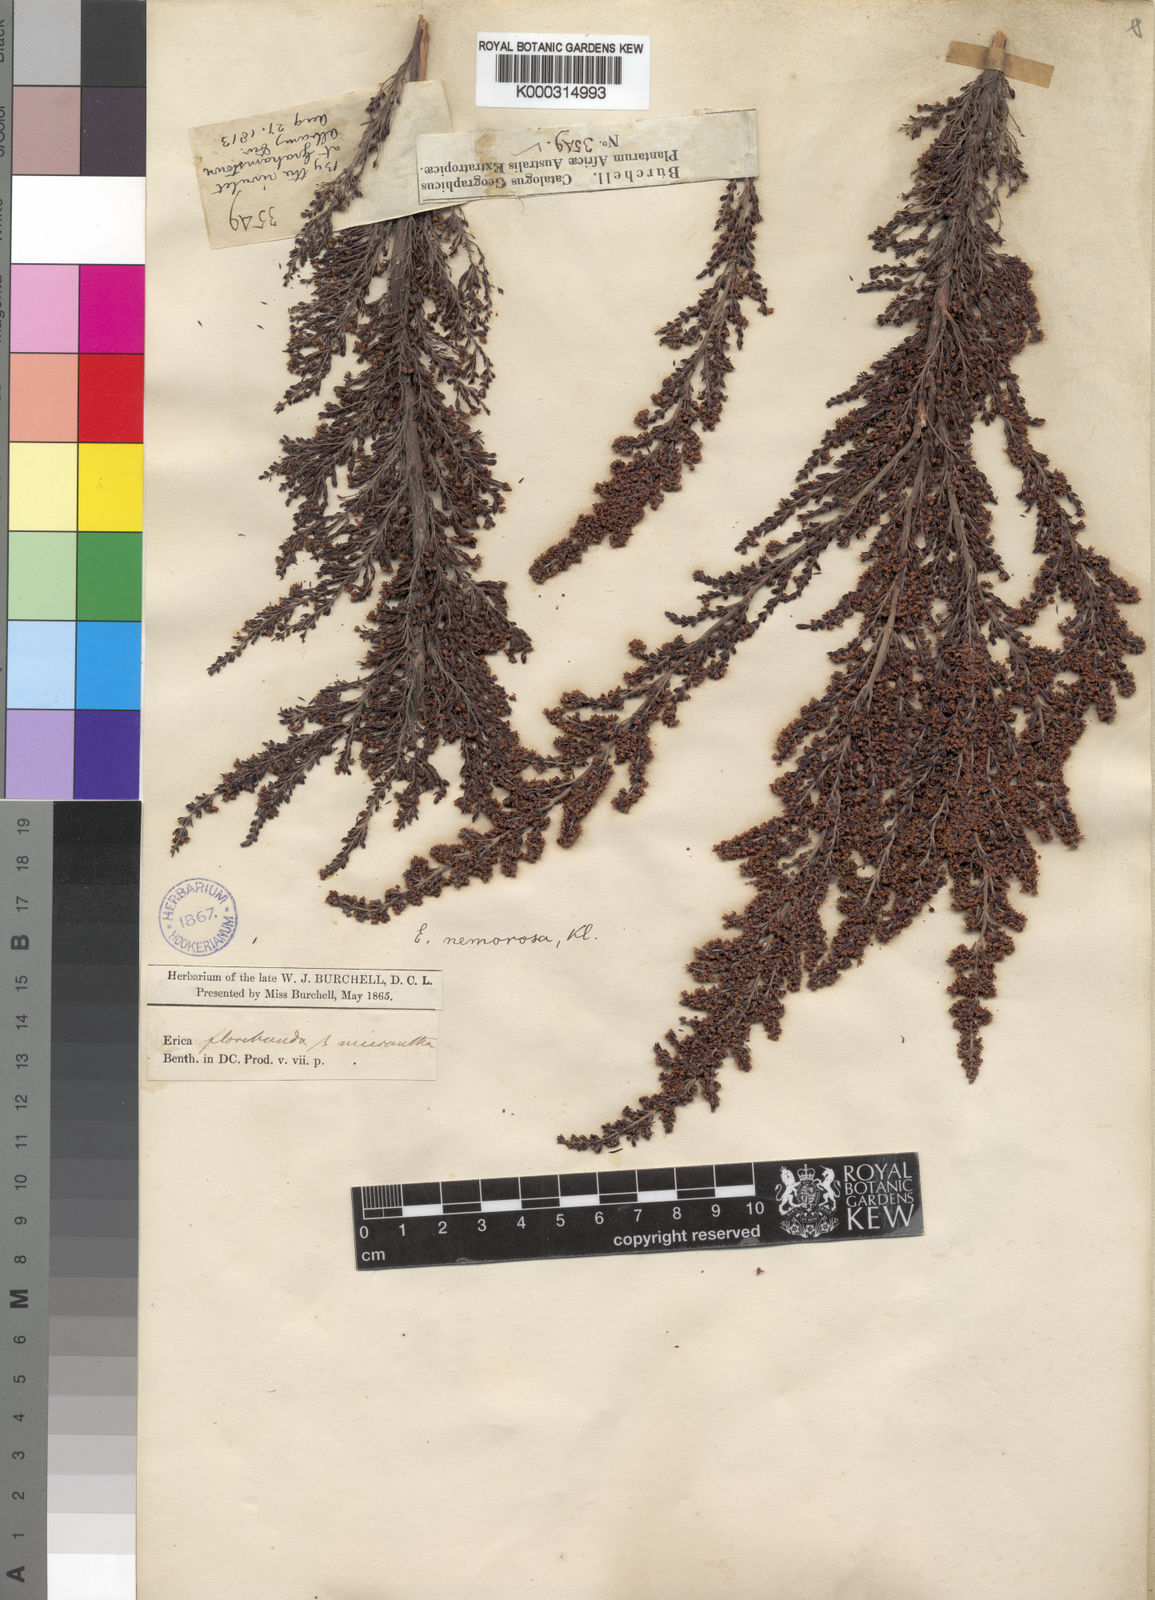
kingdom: Plantae
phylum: Tracheophyta
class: Magnoliopsida
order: Ericales
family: Ericaceae
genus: Erica
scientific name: Erica nemorosa
